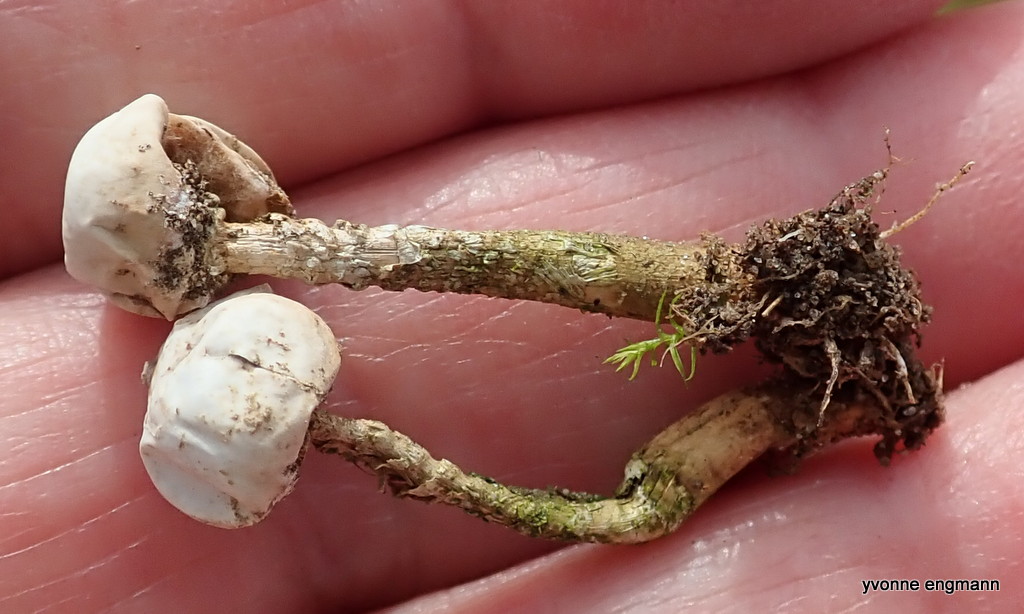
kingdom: Fungi
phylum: Basidiomycota
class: Agaricomycetes
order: Agaricales
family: Agaricaceae
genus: Tulostoma
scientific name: Tulostoma brumale
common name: vinter-stilkbovist
